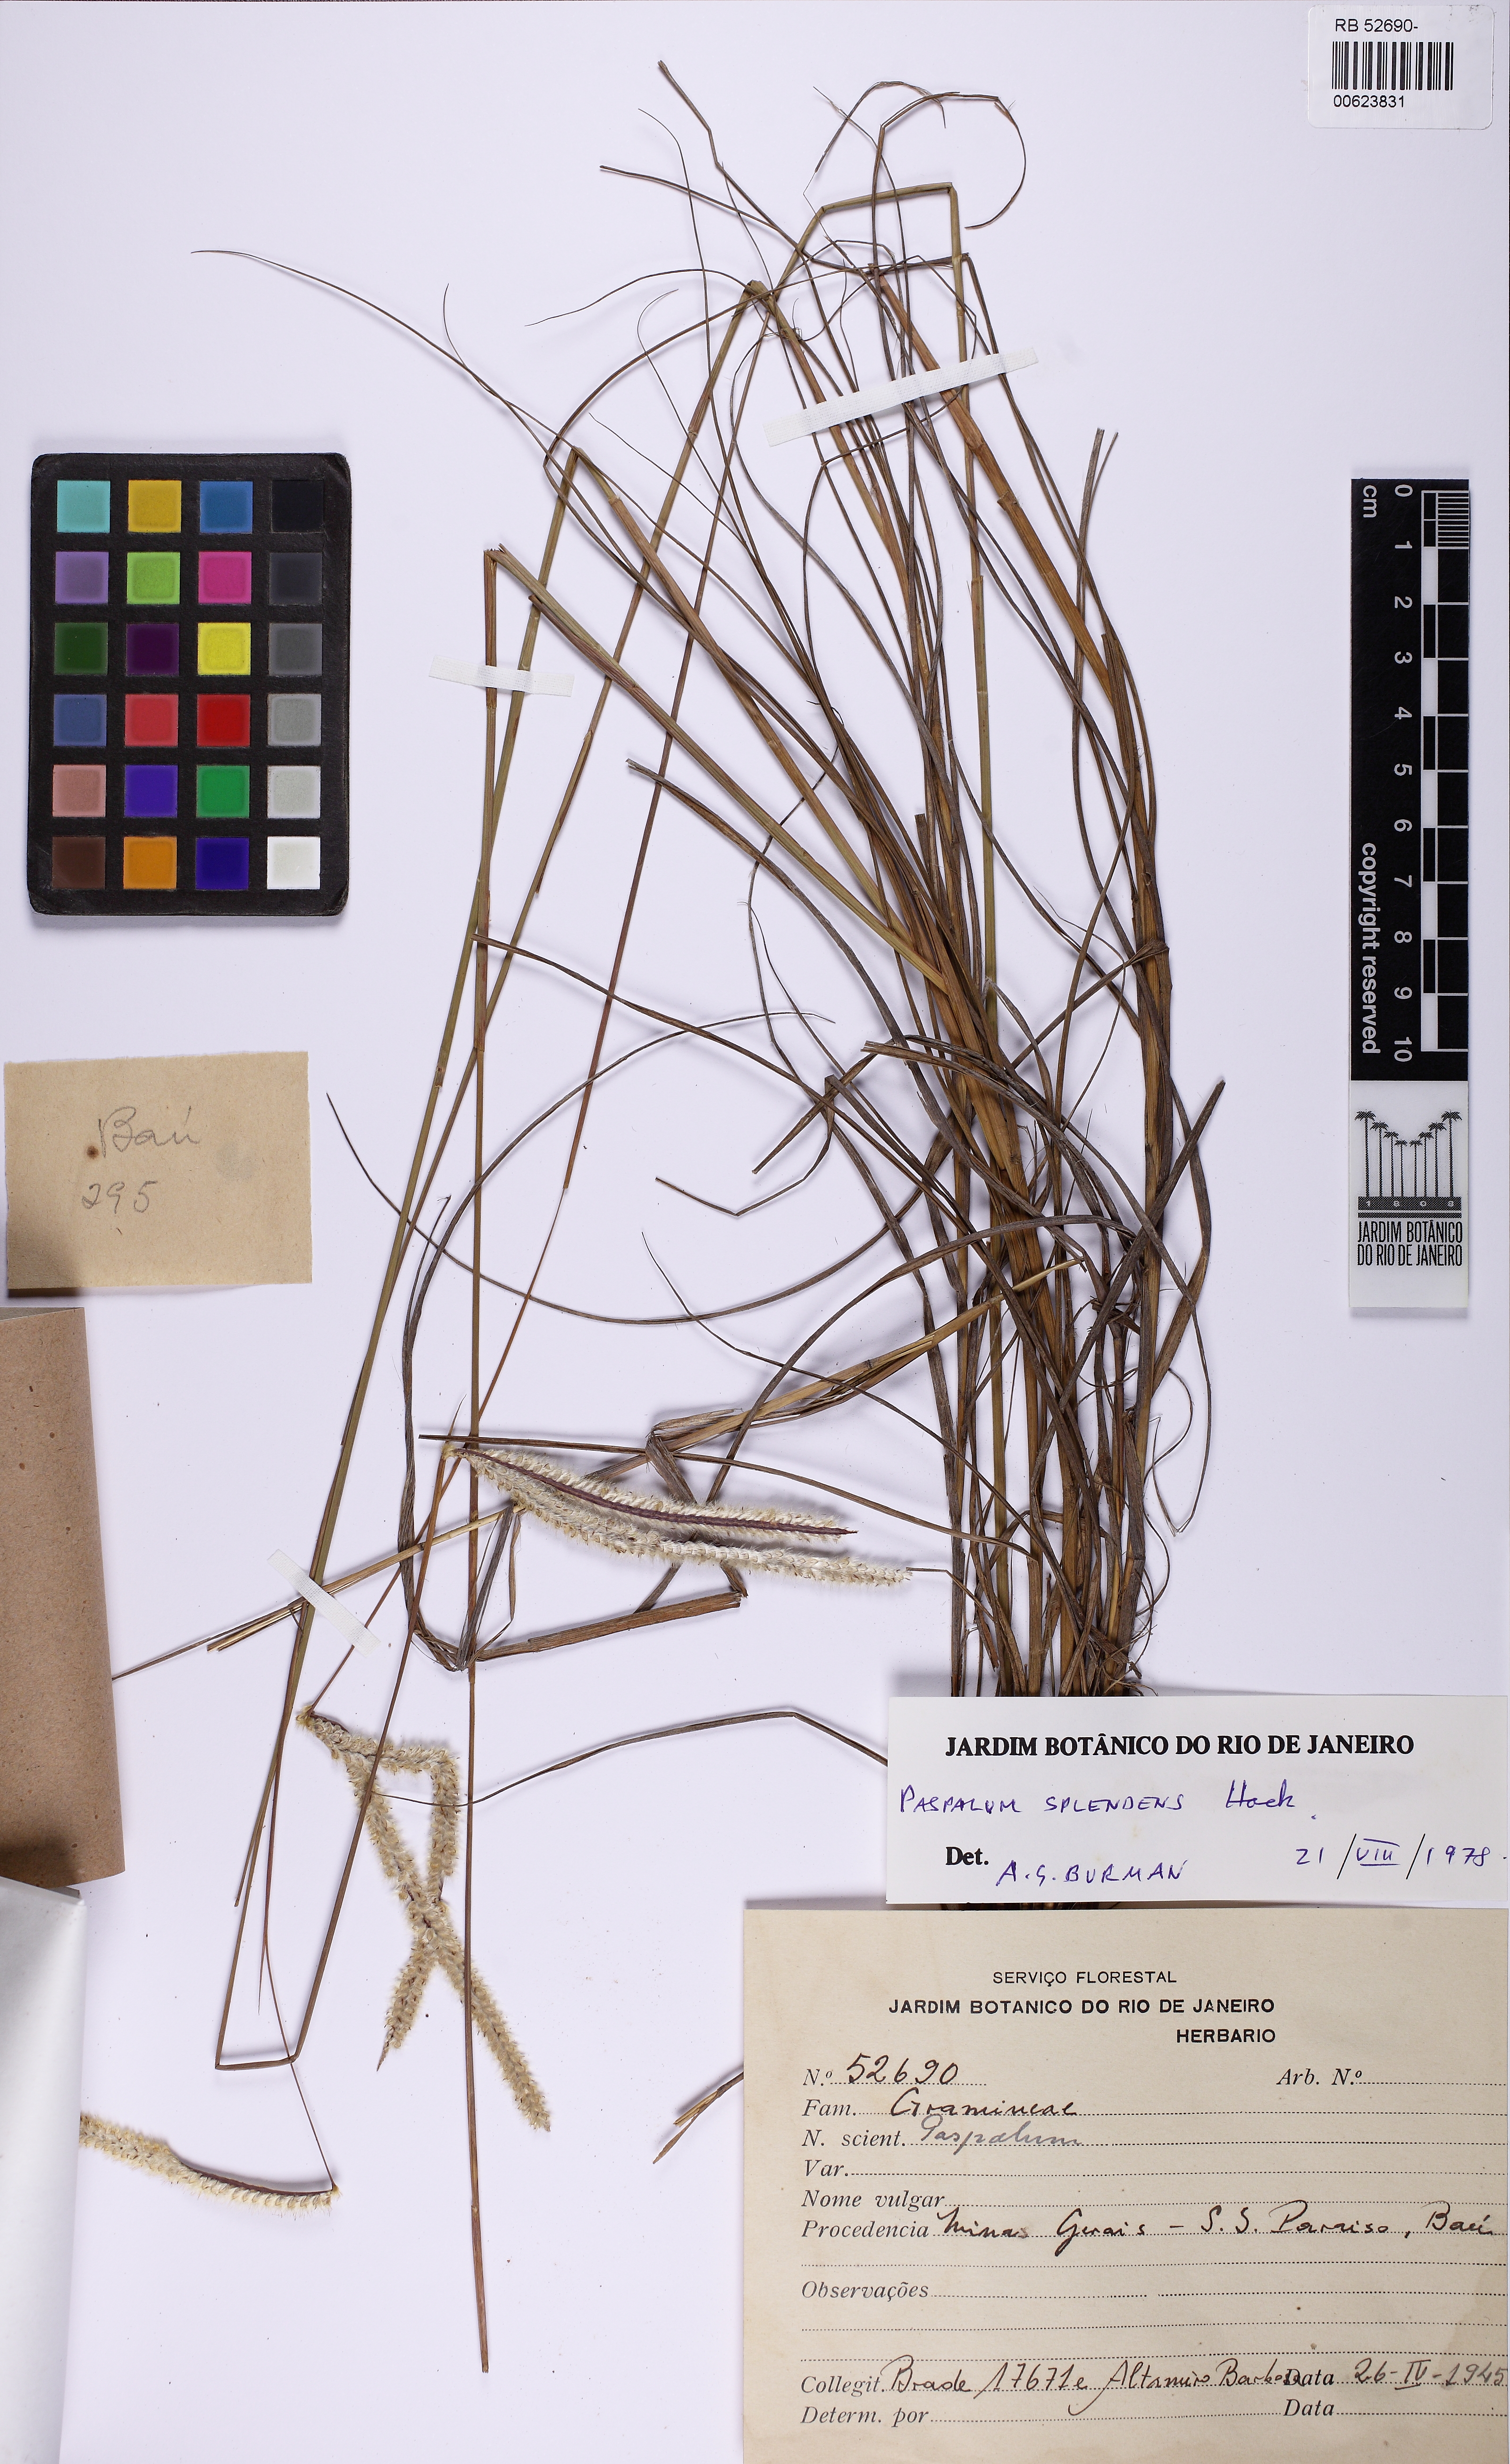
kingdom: Plantae
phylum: Tracheophyta
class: Liliopsida
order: Poales
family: Poaceae
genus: Paspalum
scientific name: Paspalum eucomum
